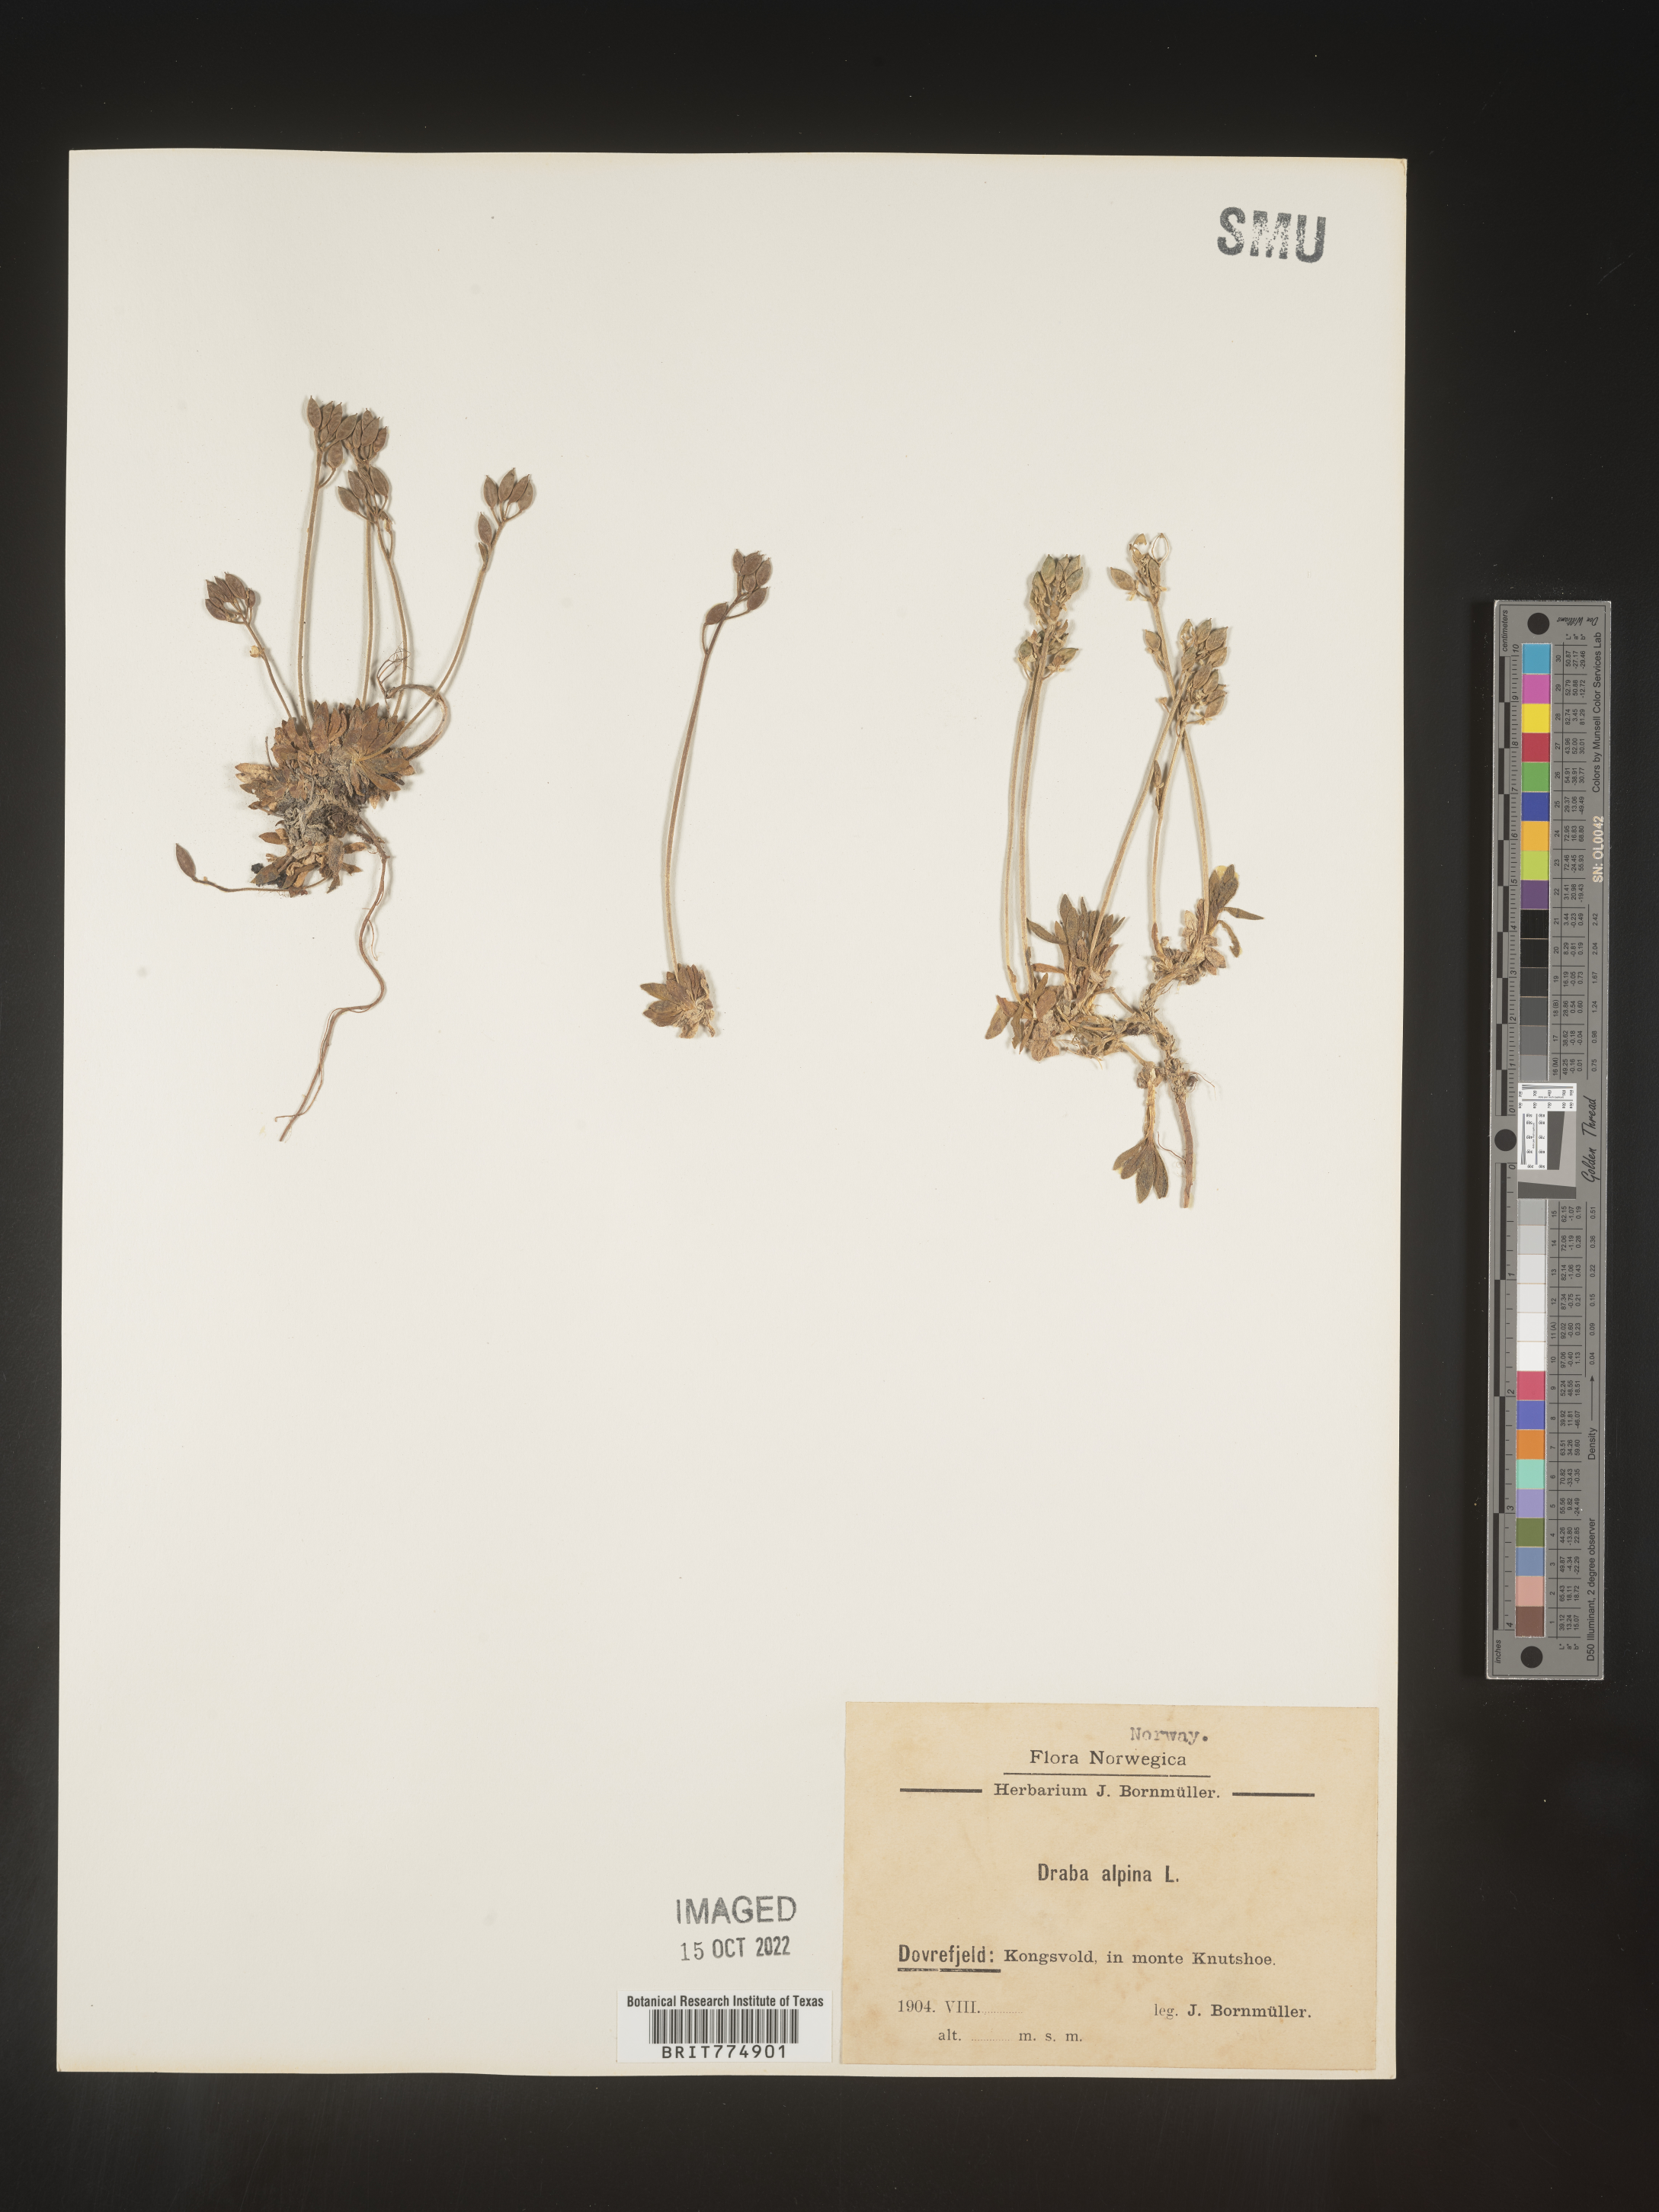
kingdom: Plantae
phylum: Tracheophyta
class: Magnoliopsida
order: Brassicales
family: Brassicaceae
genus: Draba
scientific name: Draba
